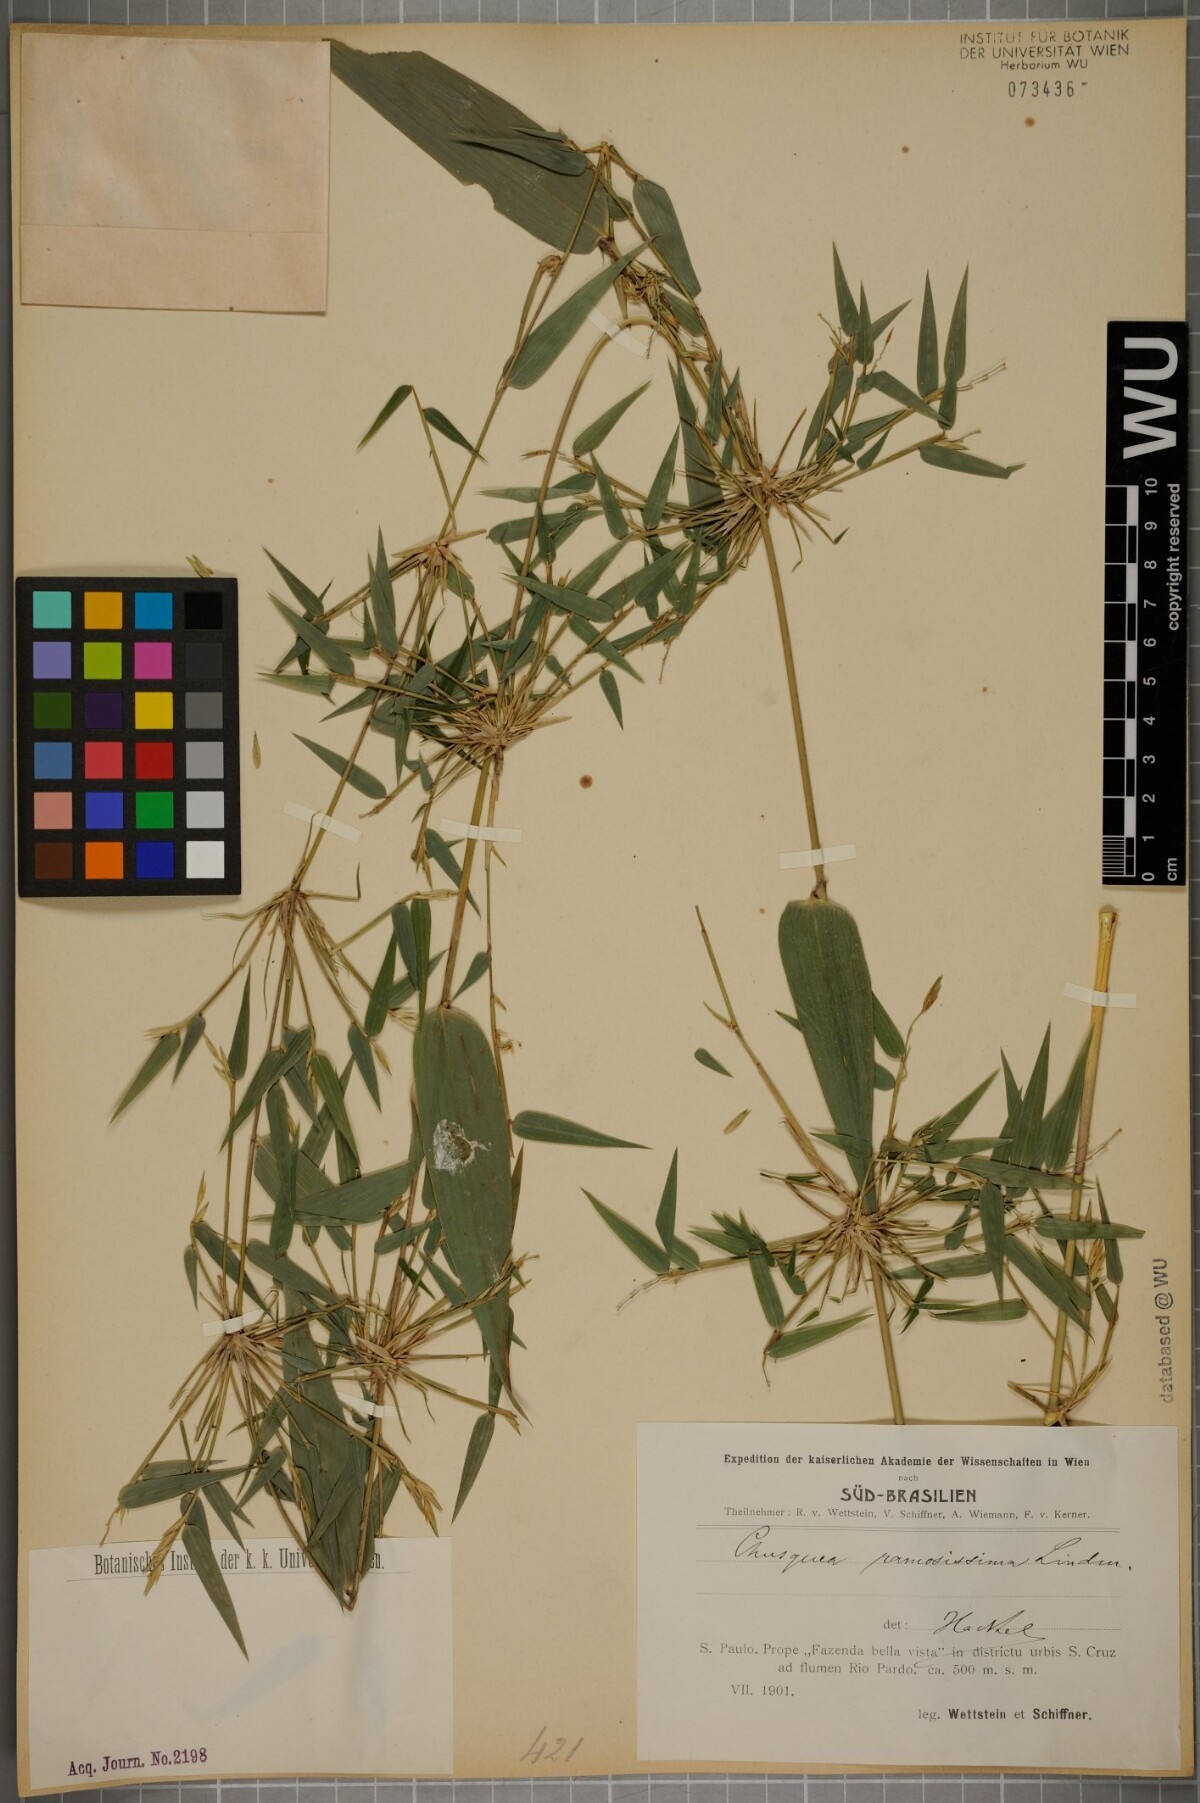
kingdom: Plantae
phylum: Tracheophyta
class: Liliopsida
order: Poales
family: Poaceae
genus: Chusquea
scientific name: Chusquea ramosissima
